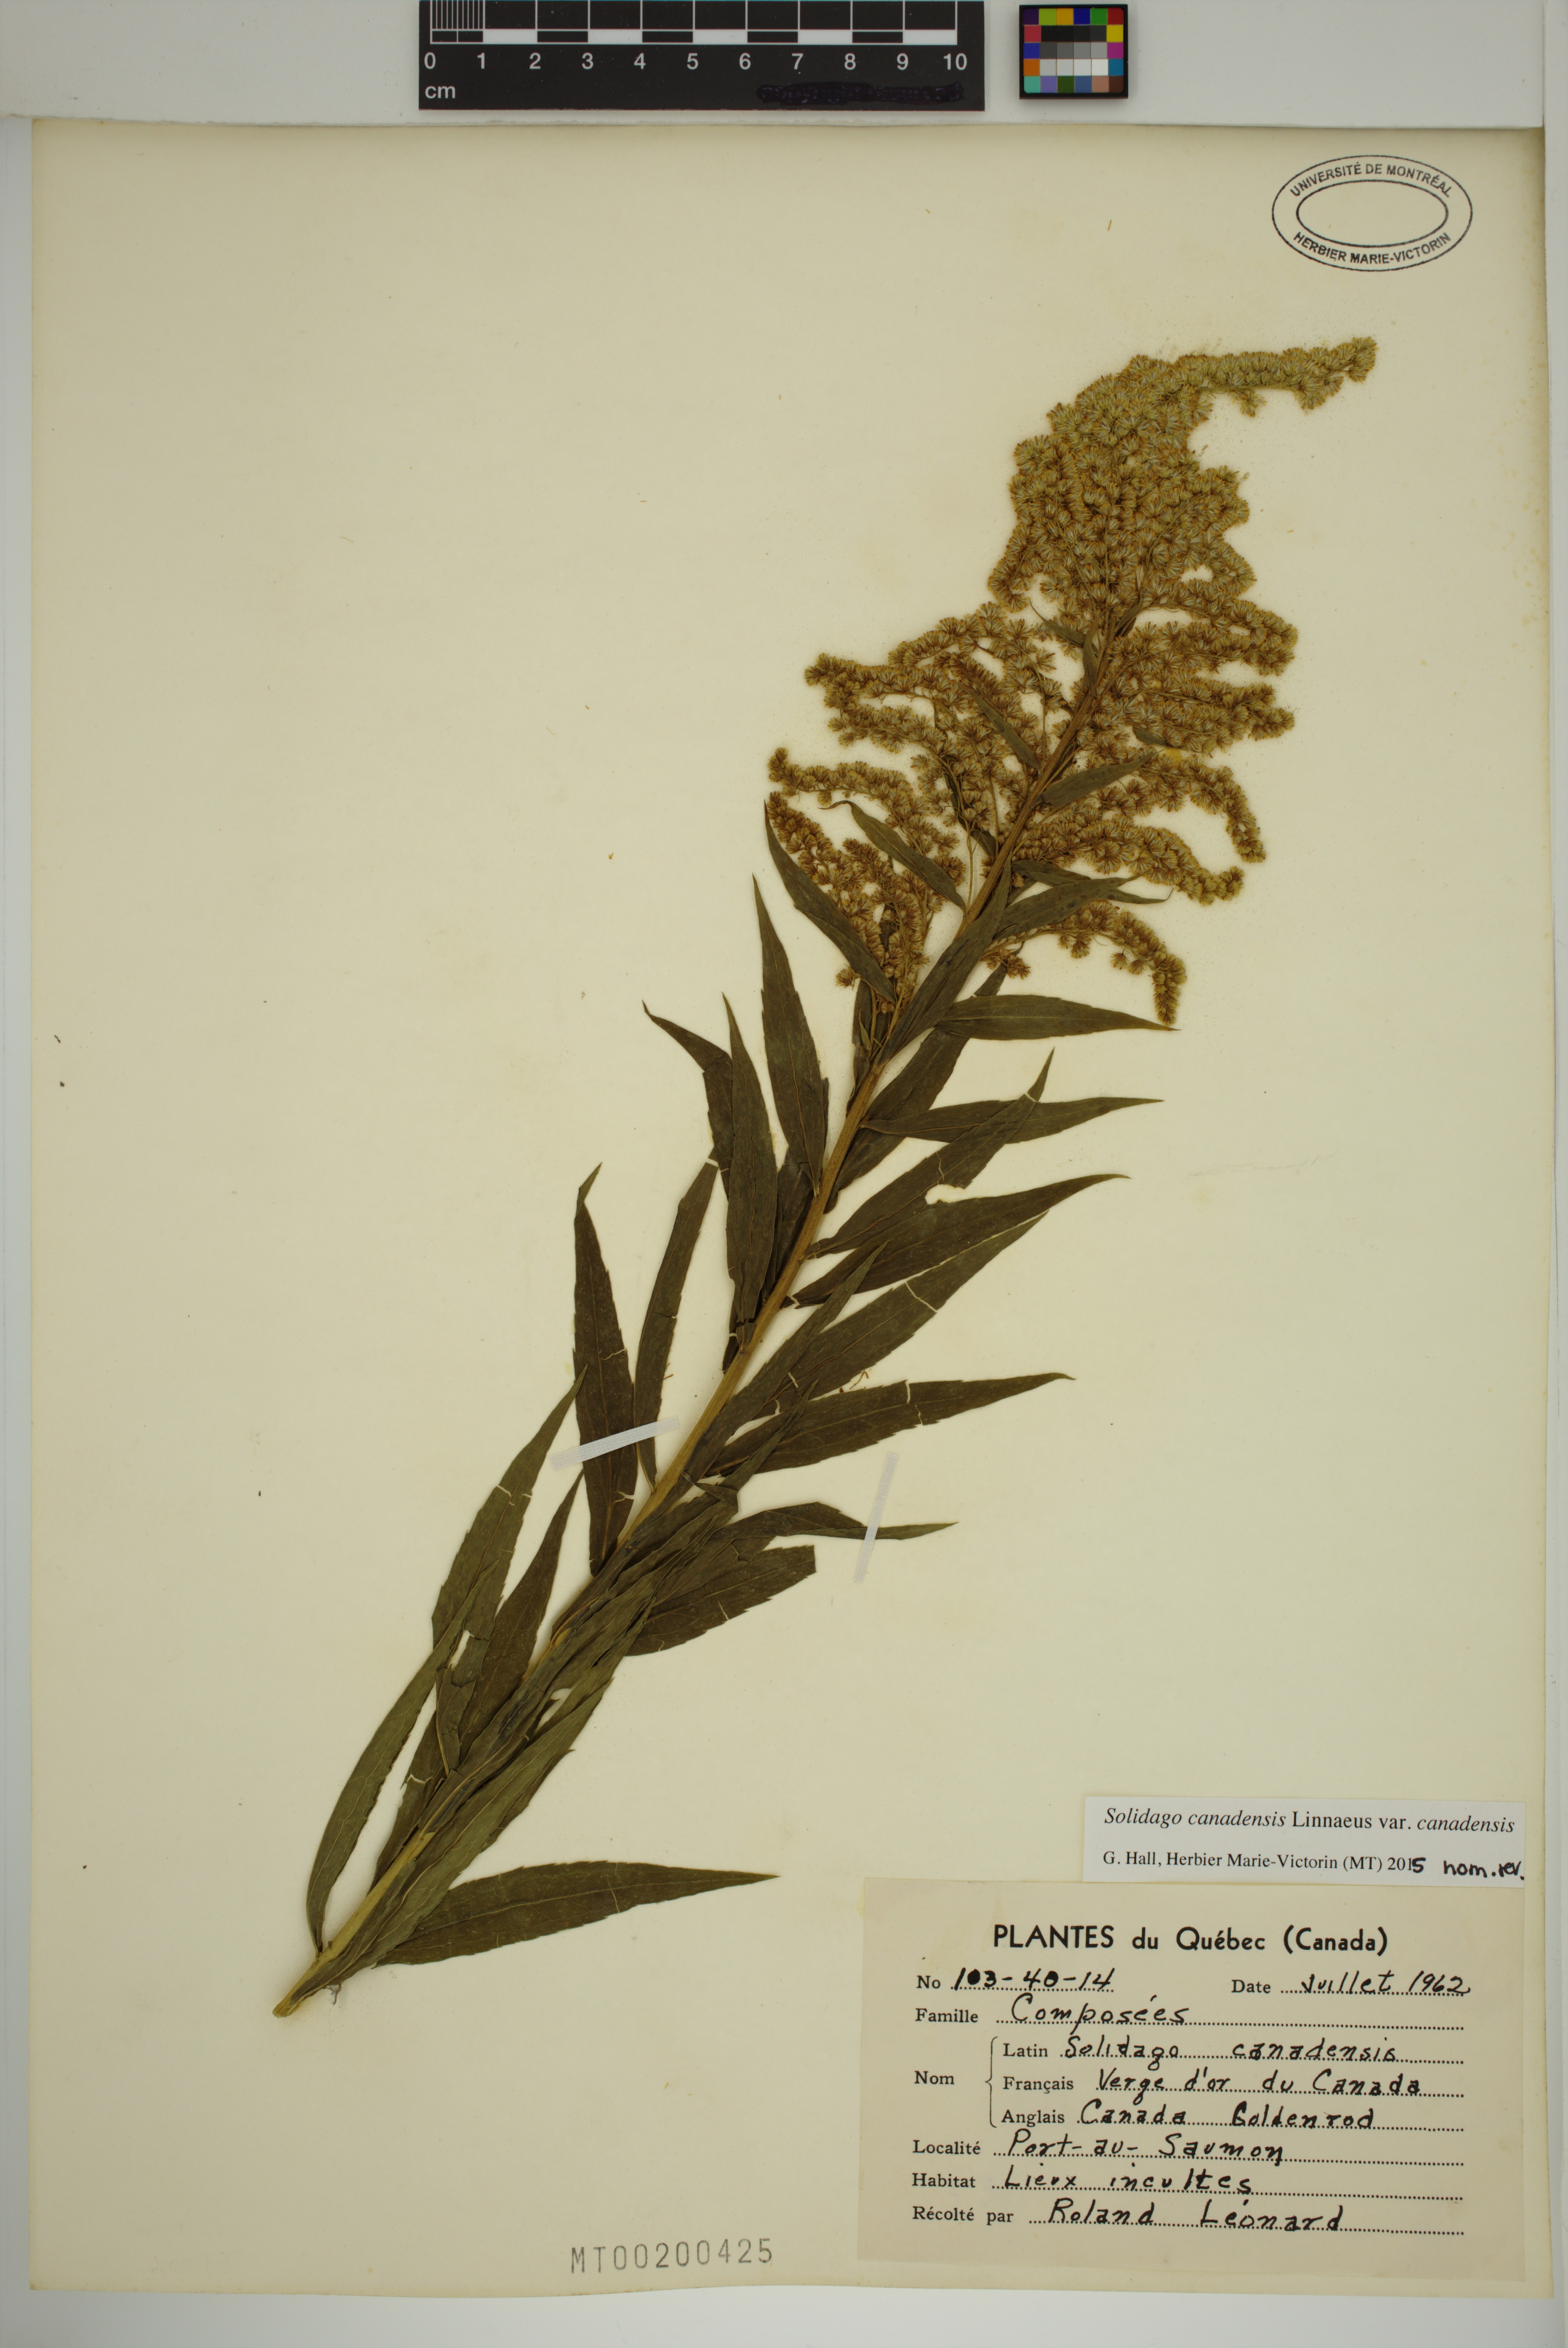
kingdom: Plantae
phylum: Tracheophyta
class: Magnoliopsida
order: Asterales
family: Asteraceae
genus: Solidago
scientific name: Solidago canadensis
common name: Canada goldenrod
